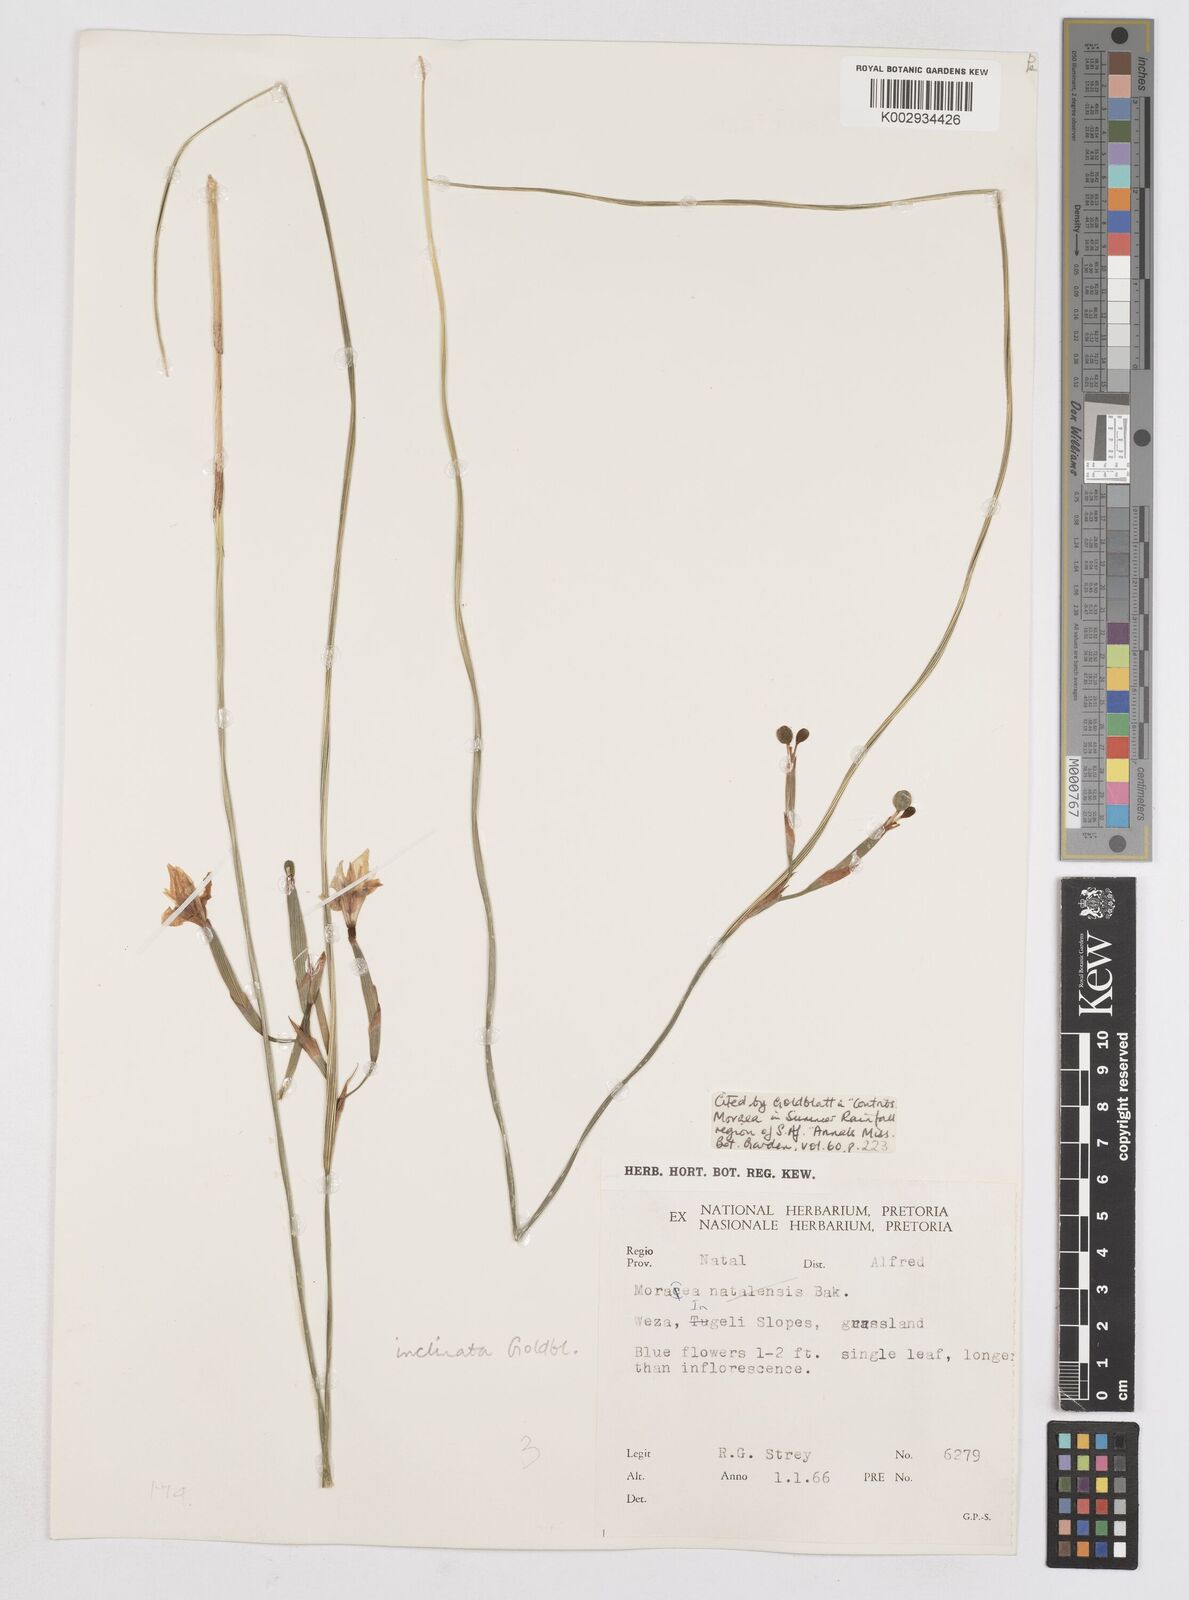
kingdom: Plantae
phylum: Tracheophyta
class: Liliopsida
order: Asparagales
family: Iridaceae
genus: Moraea
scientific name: Moraea inclinata
